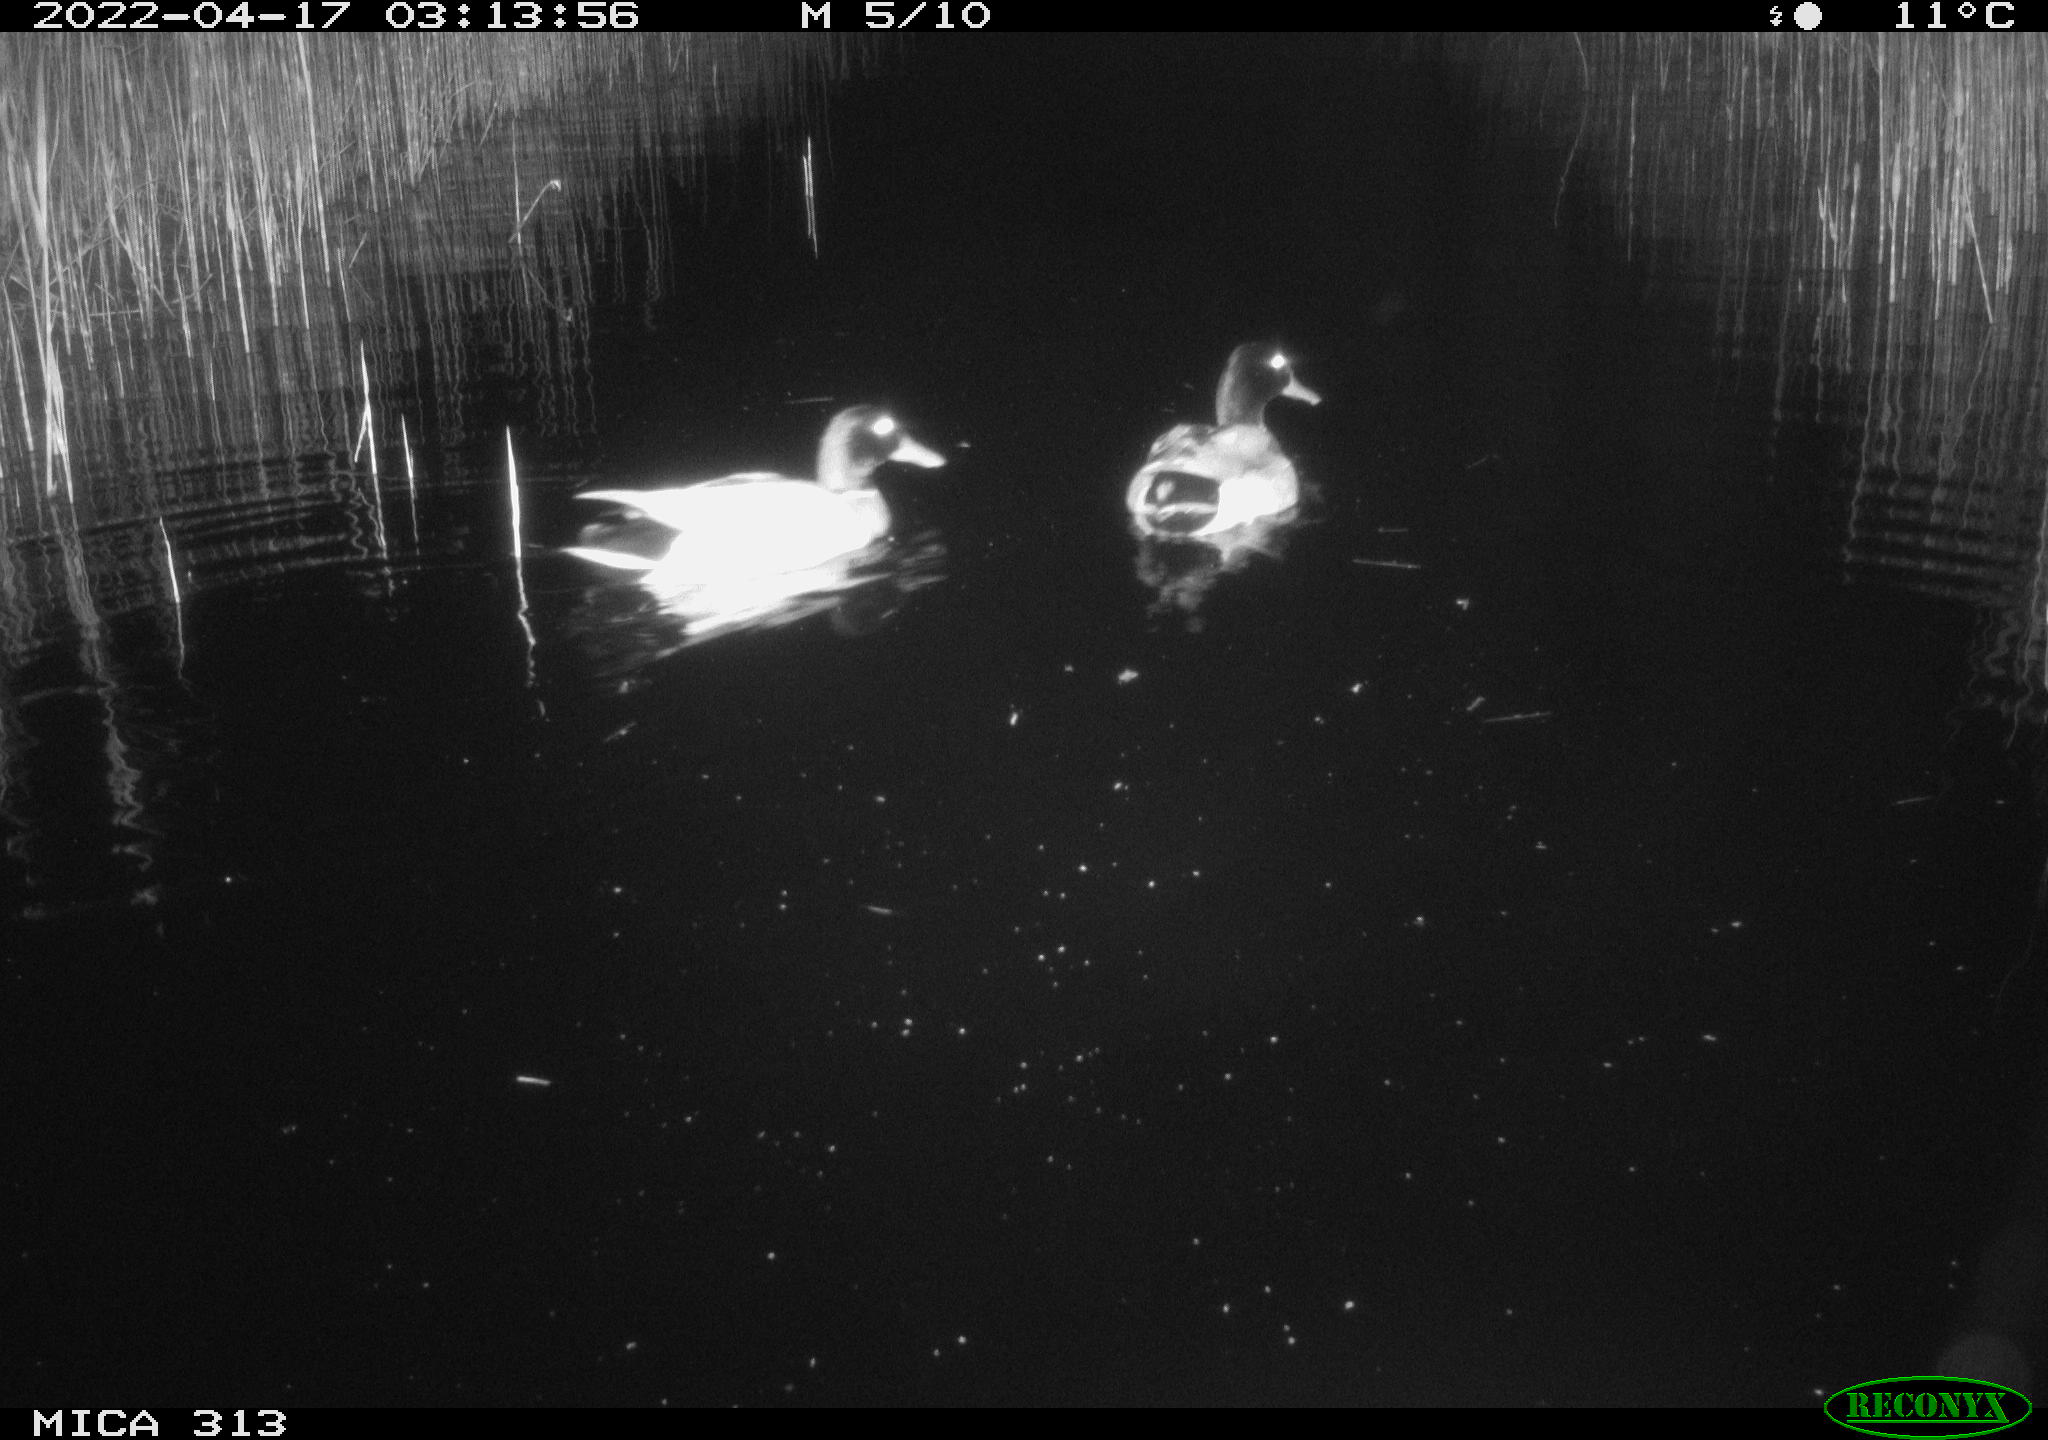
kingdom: Animalia
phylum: Chordata
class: Aves
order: Anseriformes
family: Anatidae
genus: Anas
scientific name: Anas platyrhynchos
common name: Mallard
